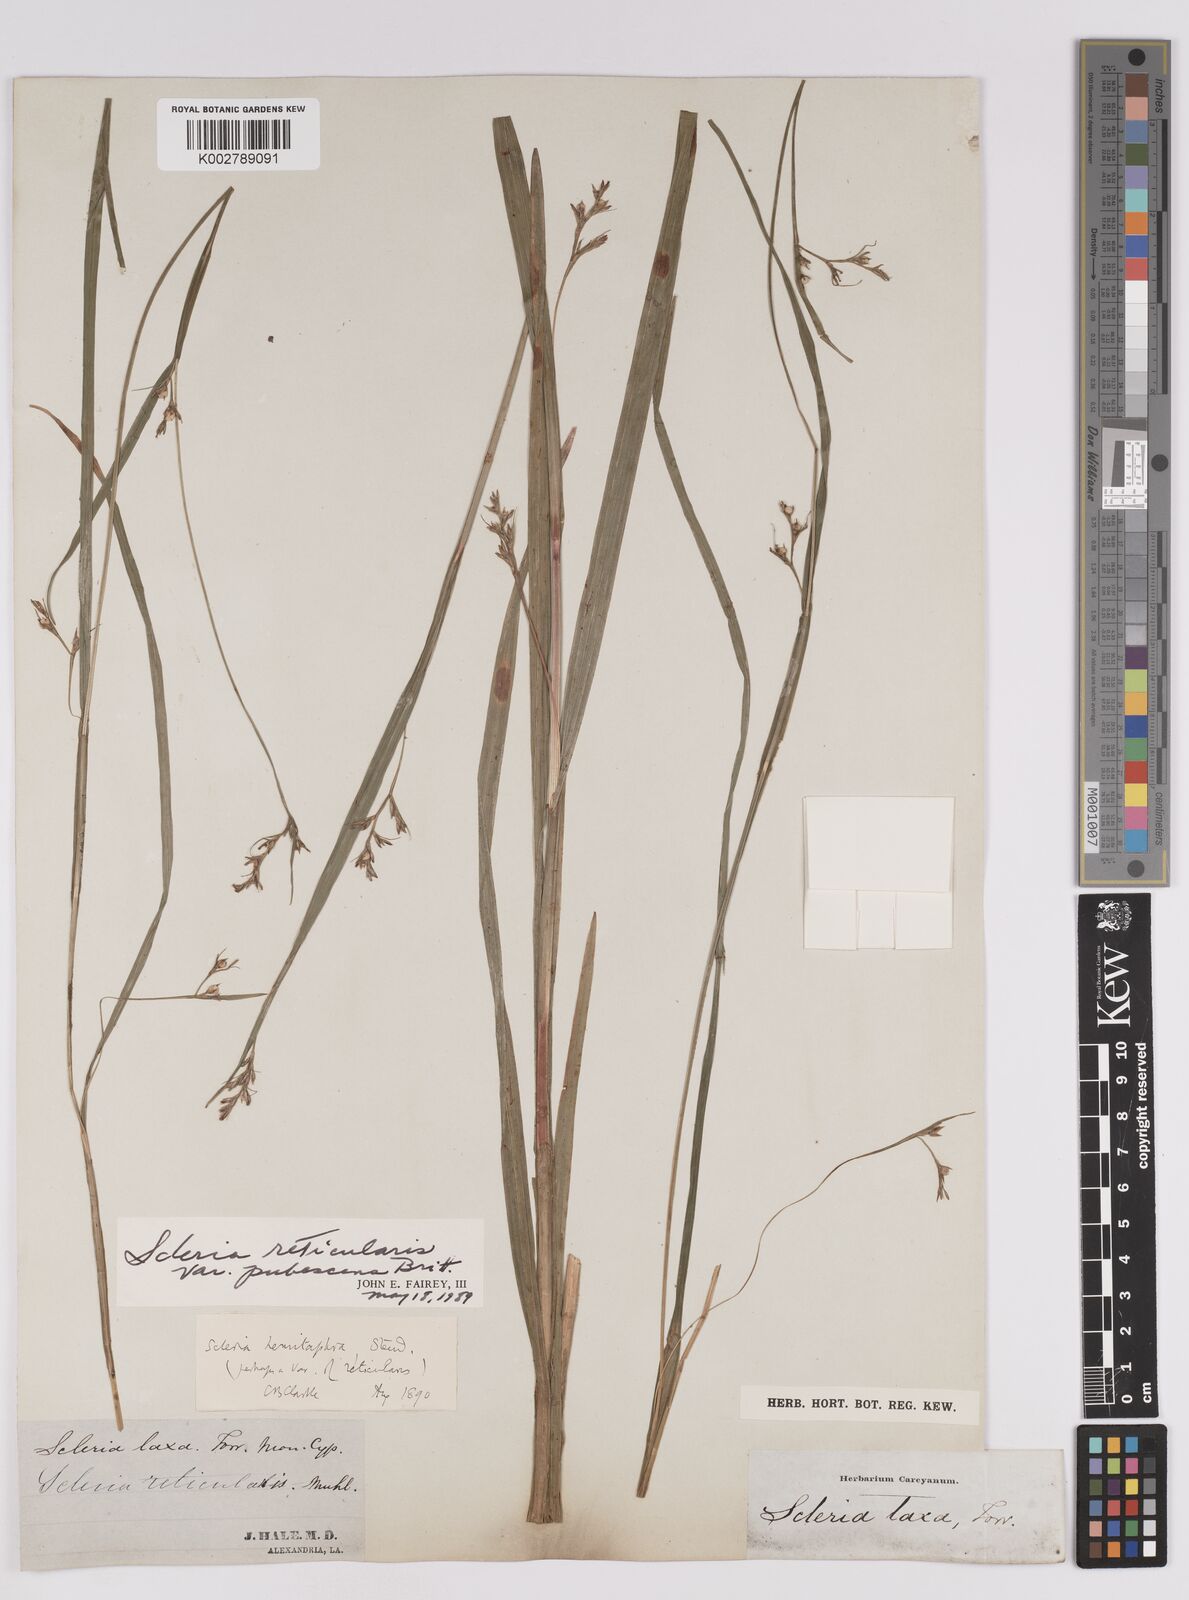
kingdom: Plantae
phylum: Tracheophyta
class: Liliopsida
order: Poales
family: Cyperaceae
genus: Scleria
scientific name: Scleria muehlenbergii
